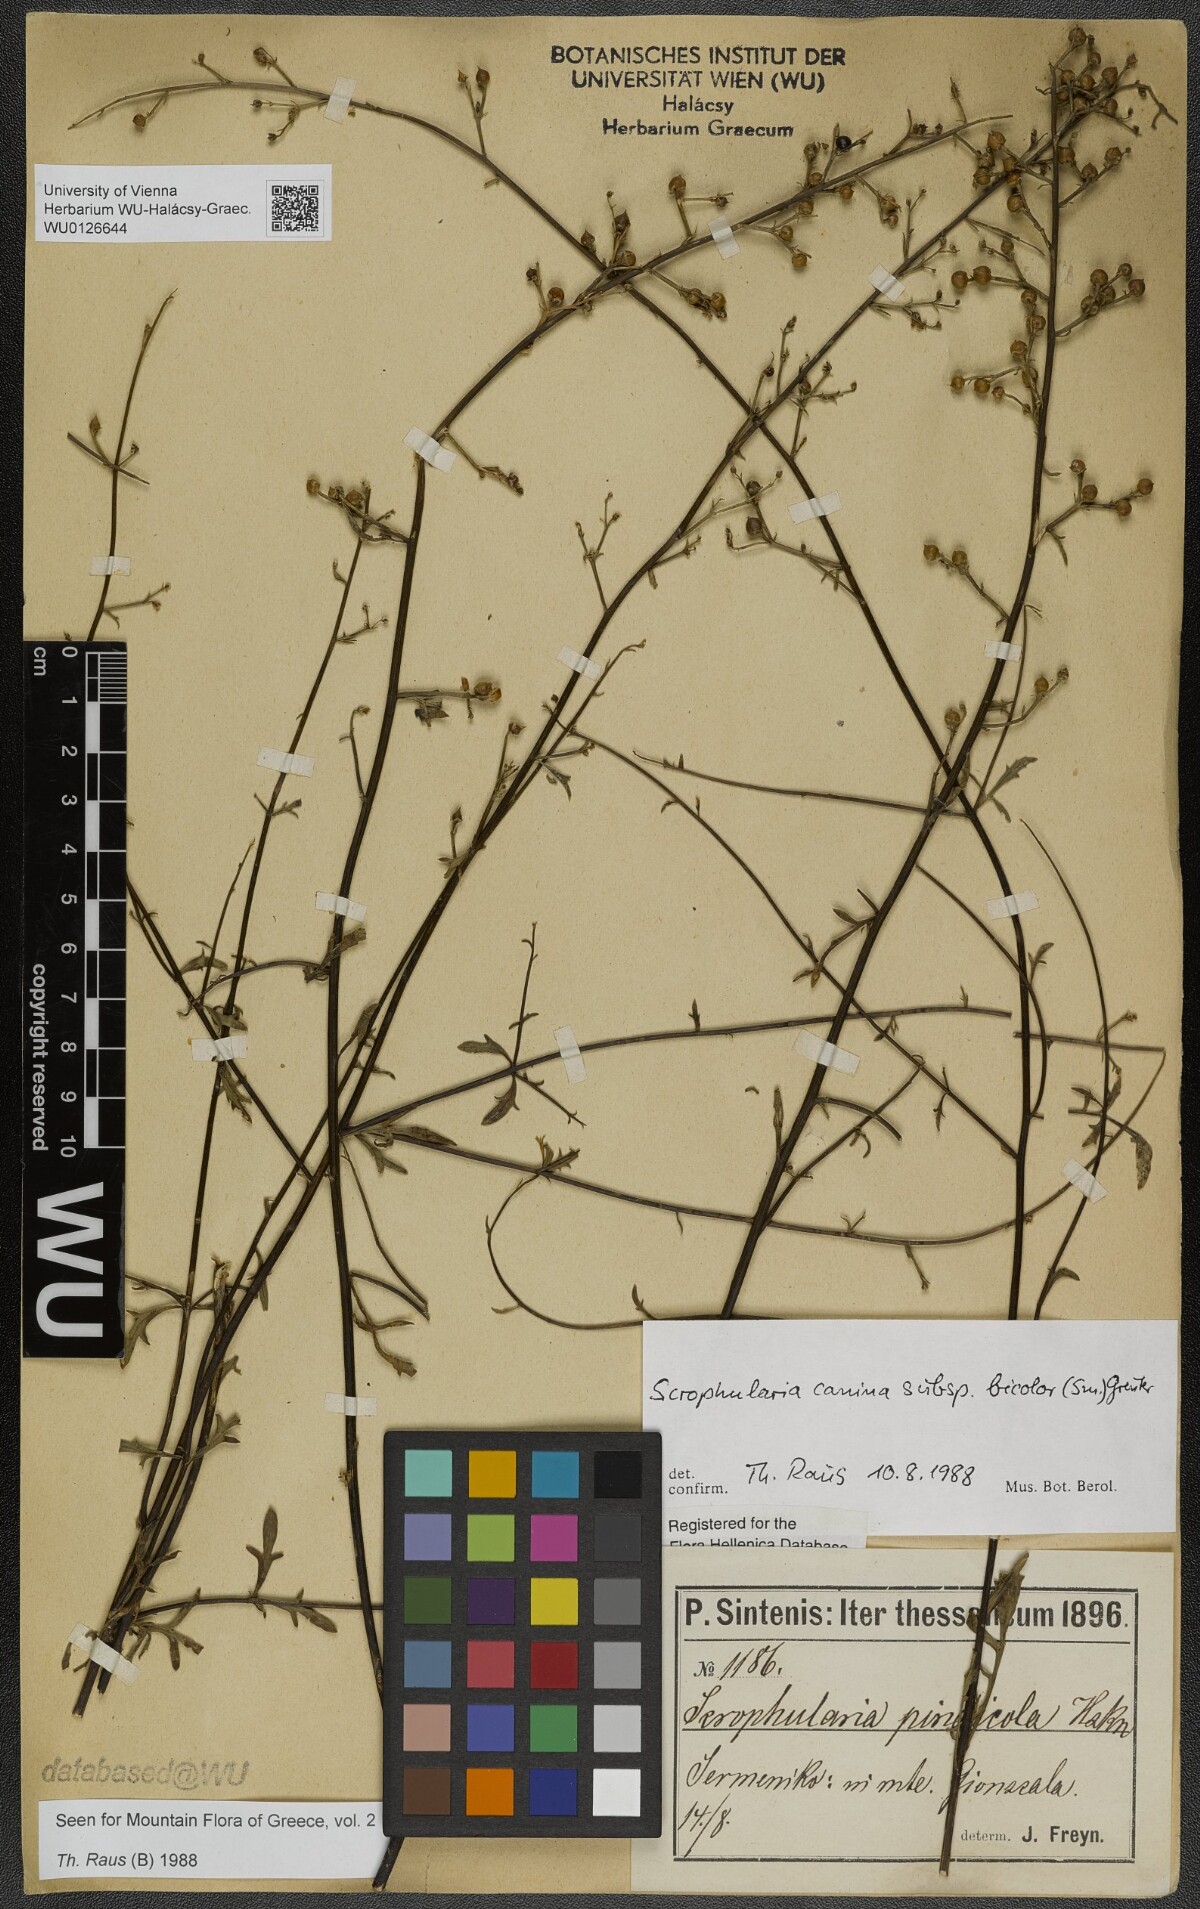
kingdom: Plantae
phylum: Tracheophyta
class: Magnoliopsida
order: Lamiales
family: Scrophulariaceae
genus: Scrophularia
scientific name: Scrophularia canina
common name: French figwort
